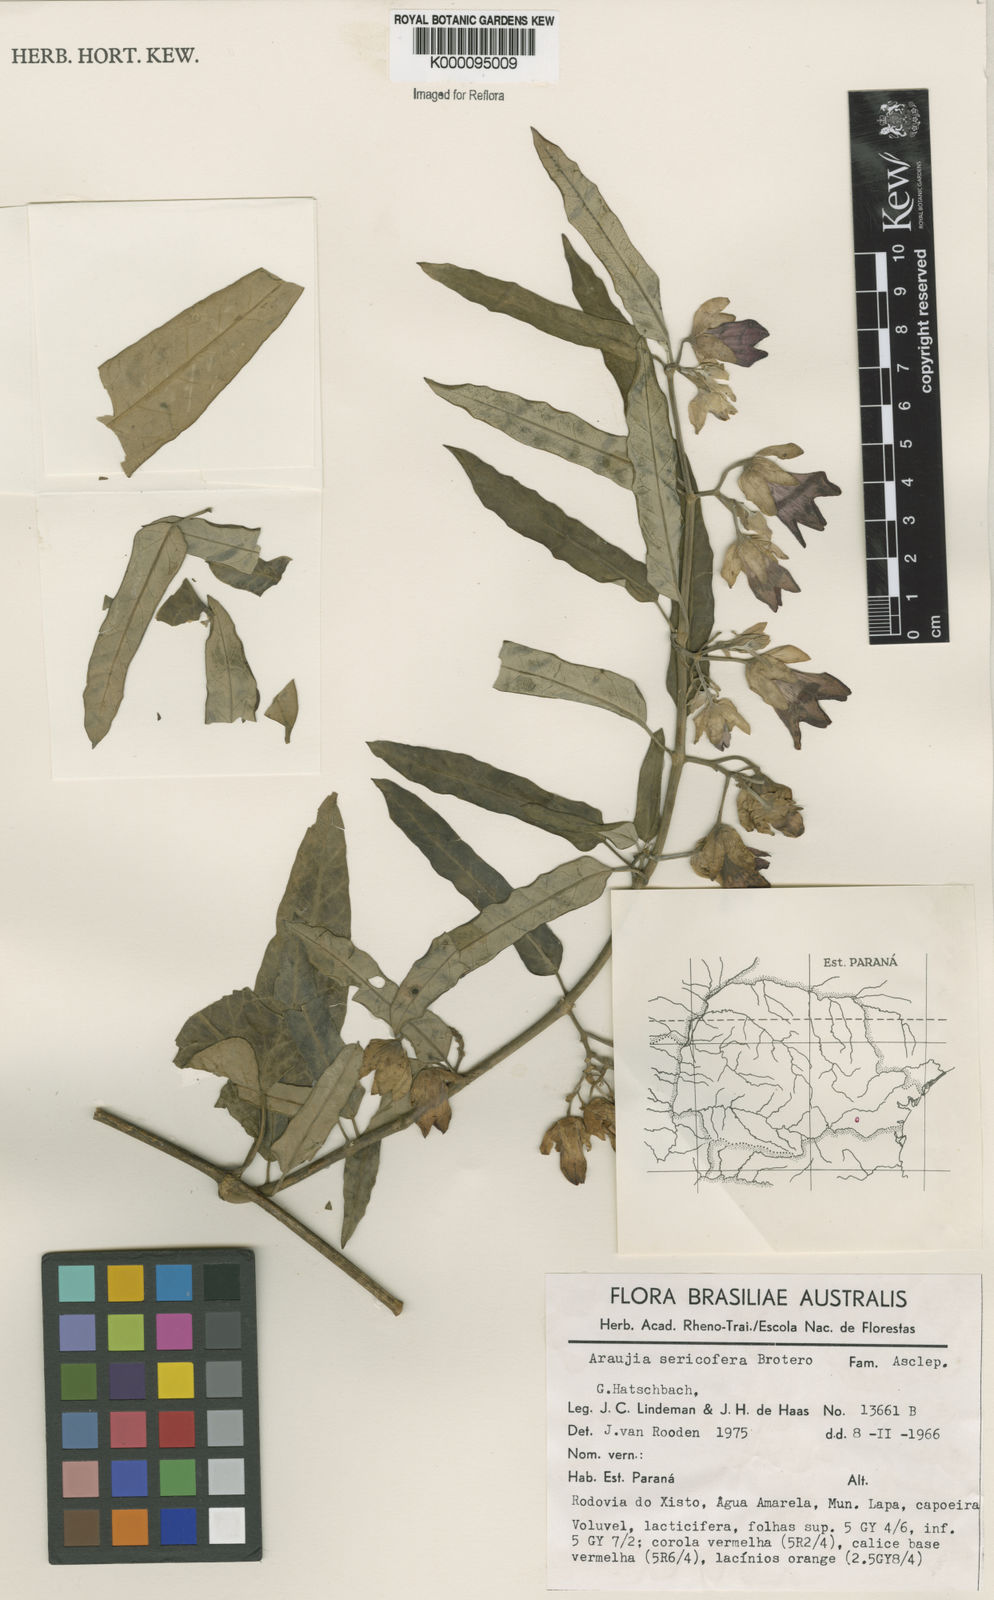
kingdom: Plantae
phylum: Tracheophyta
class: Magnoliopsida
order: Gentianales
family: Apocynaceae
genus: Araujia
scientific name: Araujia sericifera
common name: White bladderflower
